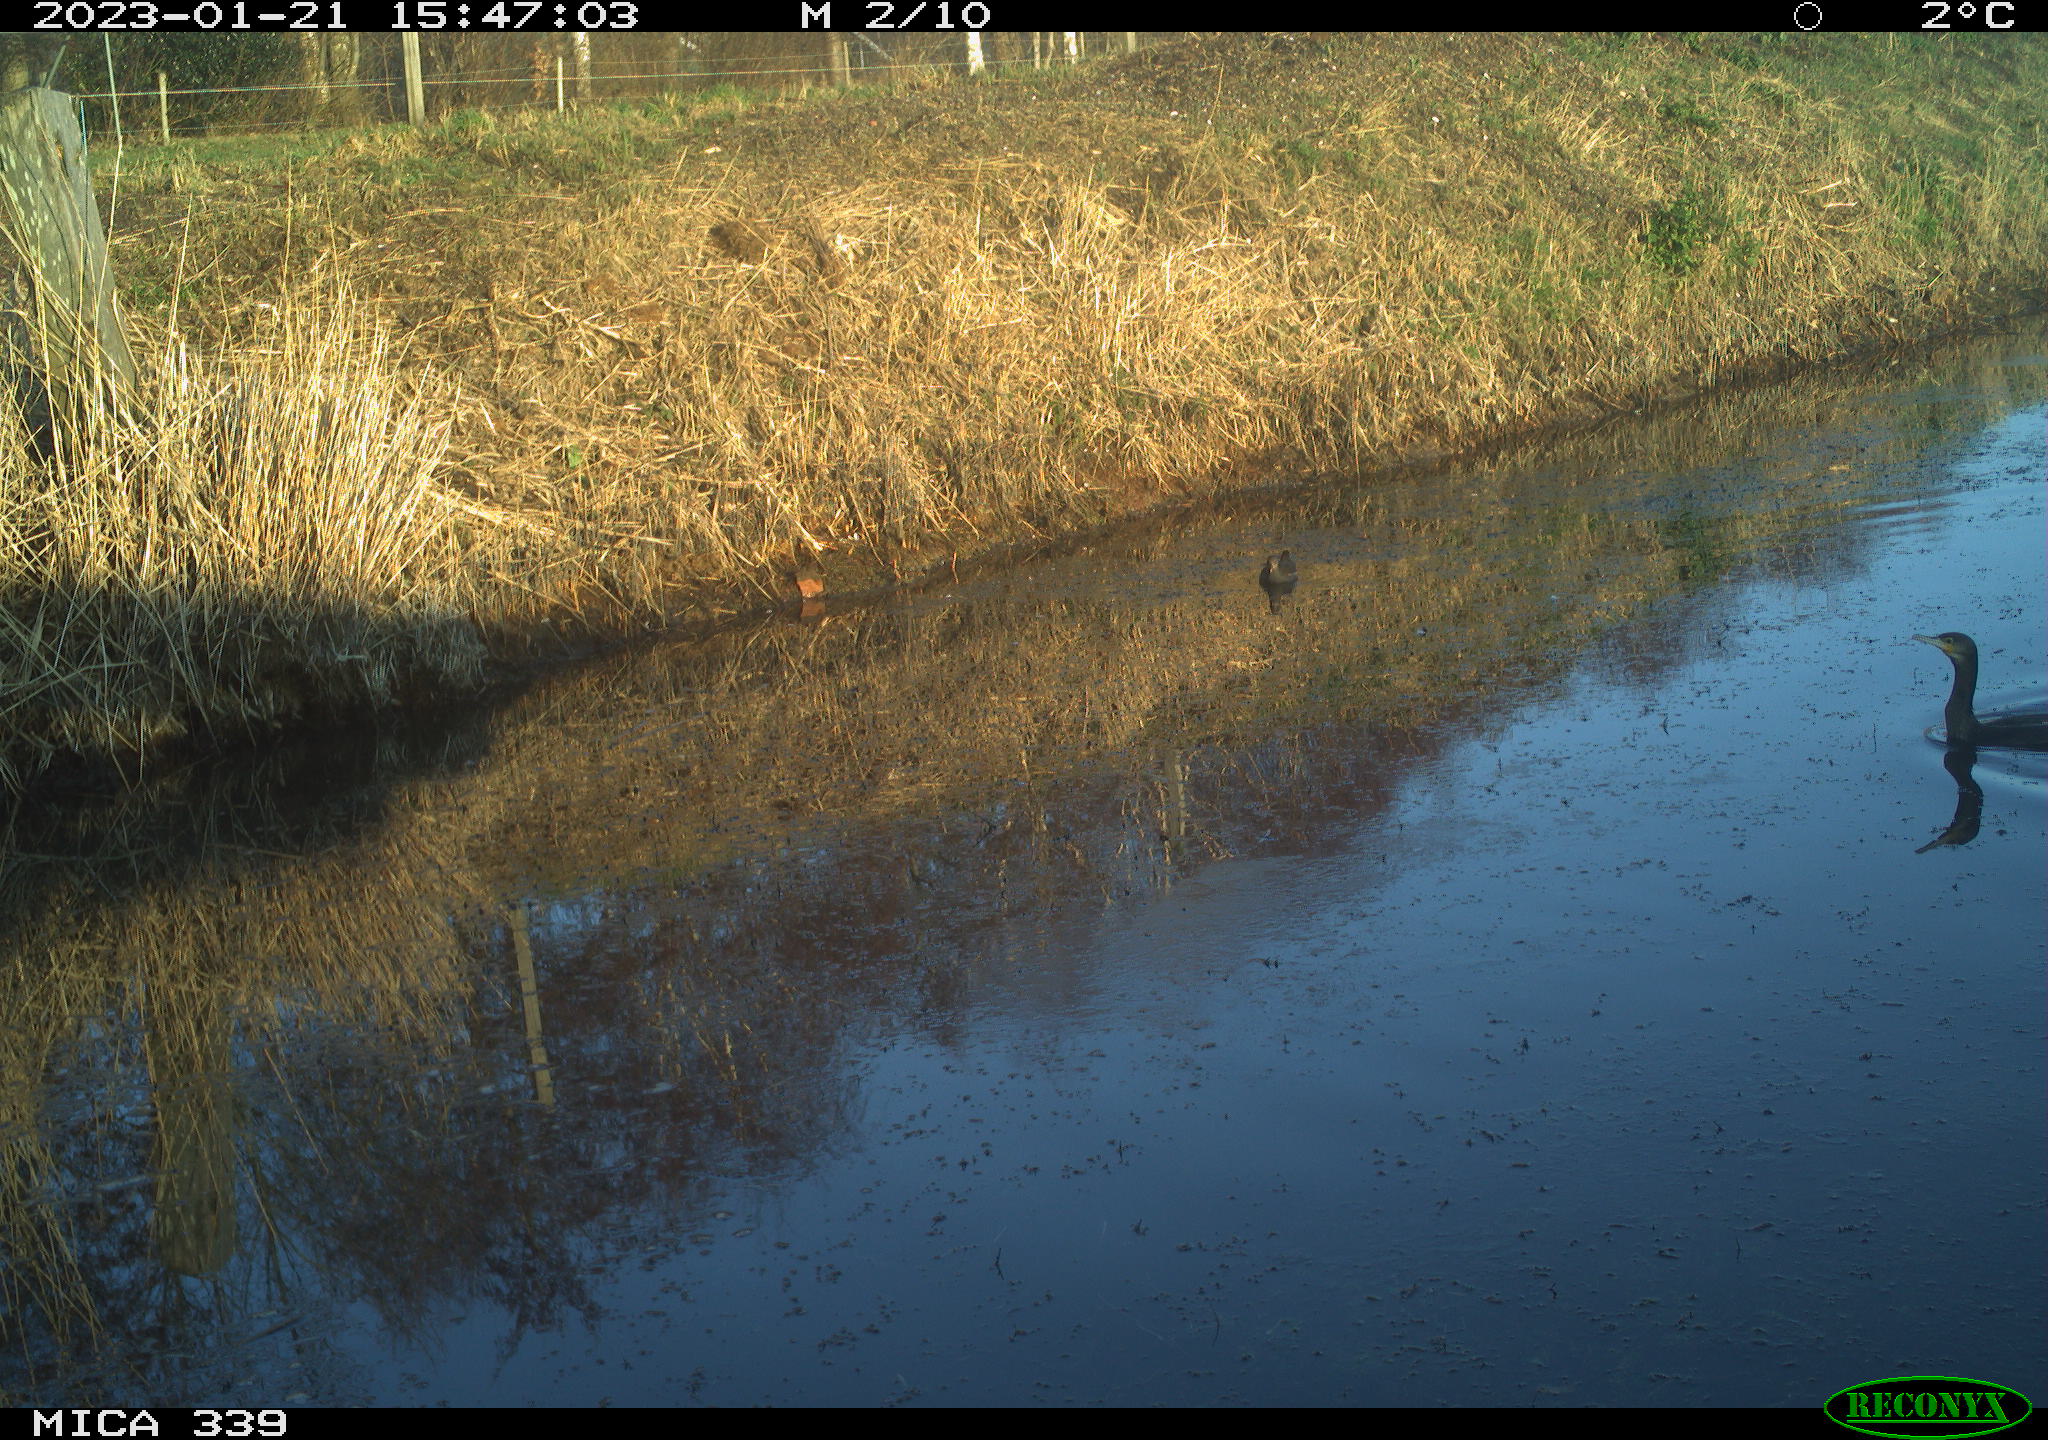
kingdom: Animalia
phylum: Chordata
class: Aves
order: Gruiformes
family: Rallidae
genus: Gallinula
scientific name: Gallinula chloropus
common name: Common moorhen
